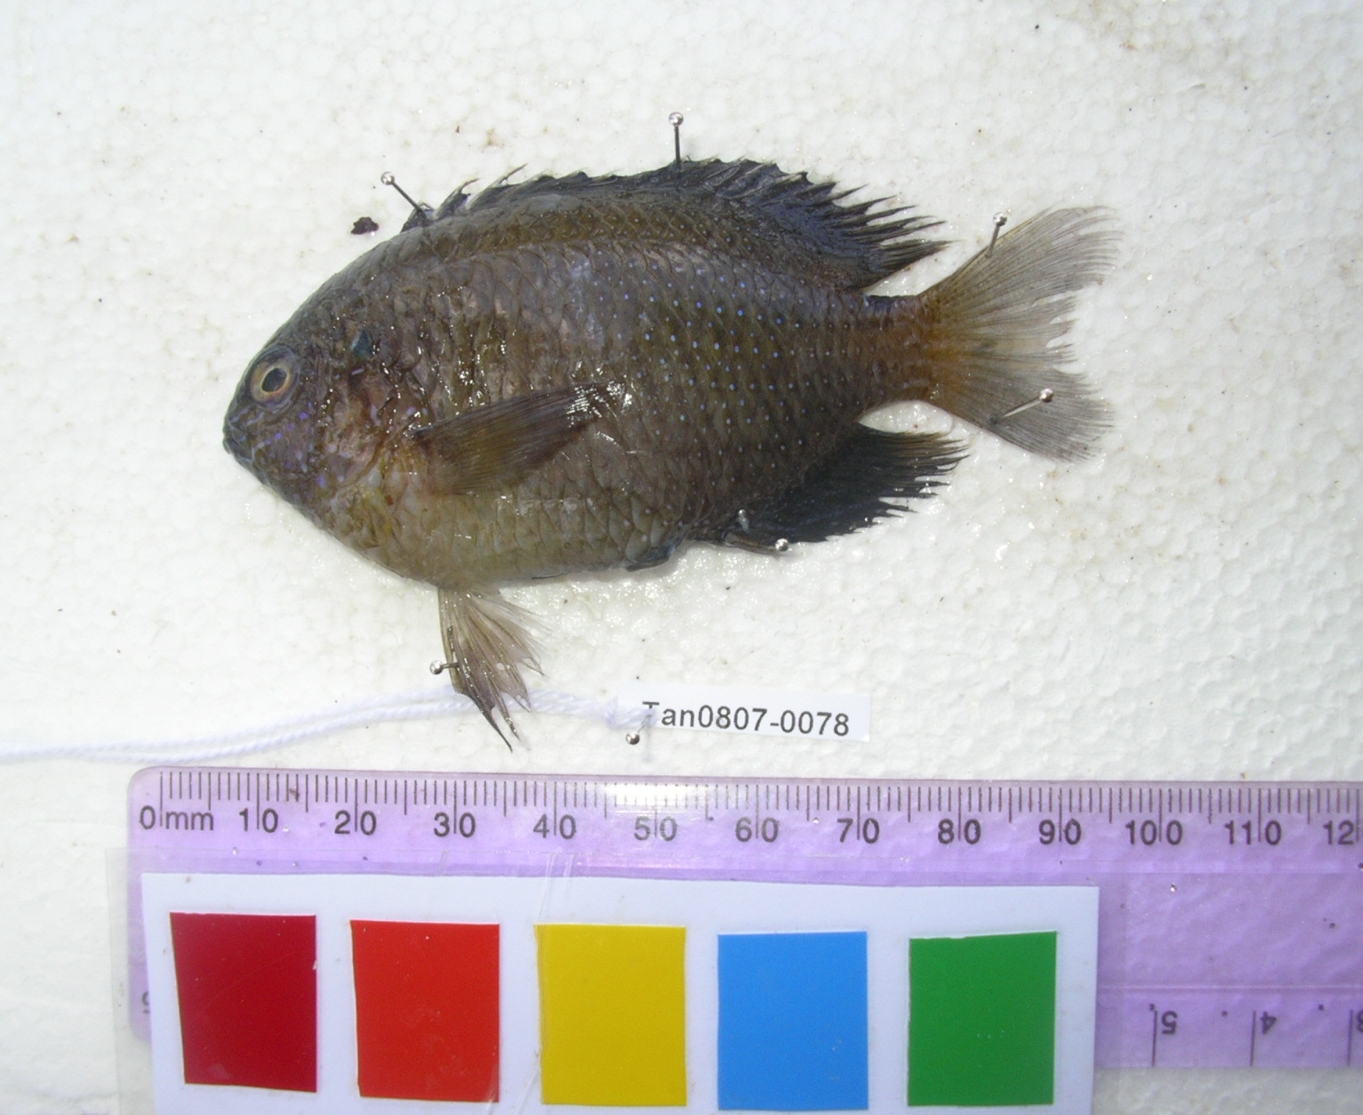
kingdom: Animalia
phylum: Chordata
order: Perciformes
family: Pomacentridae
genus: Pomacentrus
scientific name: Pomacentrus philippinus
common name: Philippine damsel
